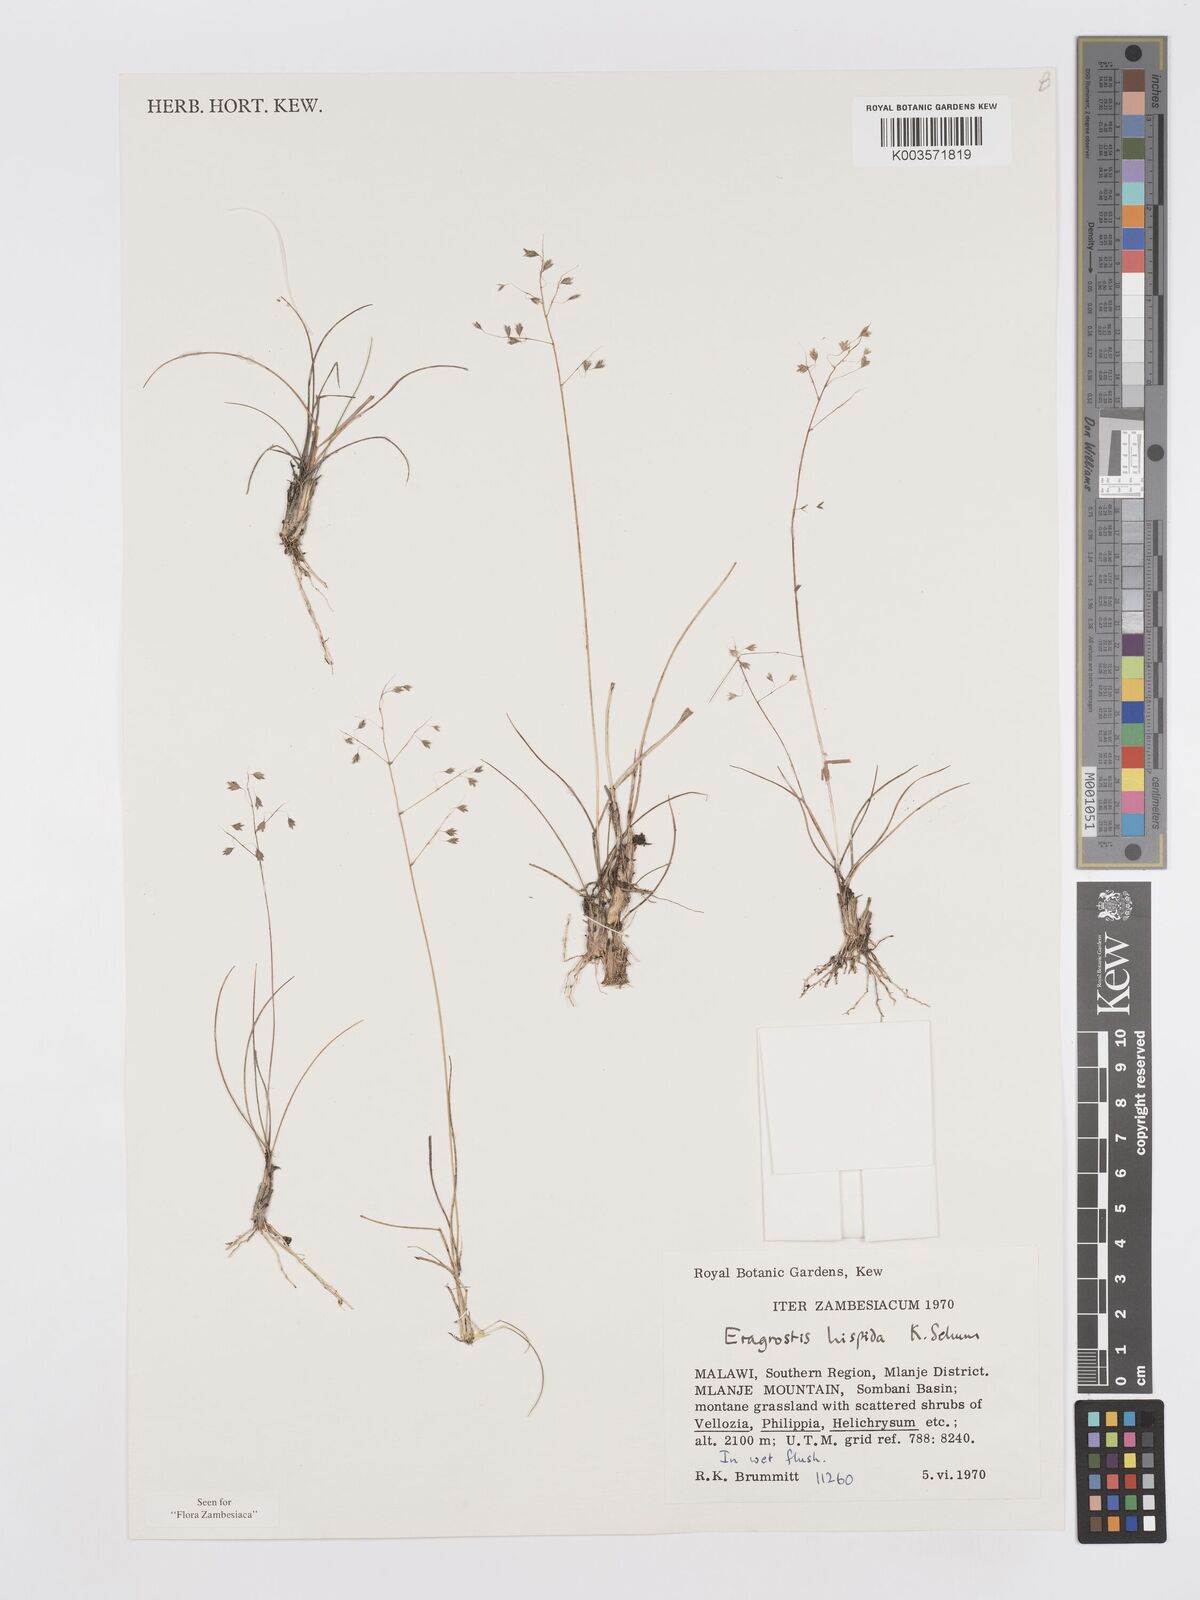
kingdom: Plantae
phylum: Tracheophyta
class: Liliopsida
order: Poales
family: Poaceae
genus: Eragrostis
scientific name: Eragrostis hispida
